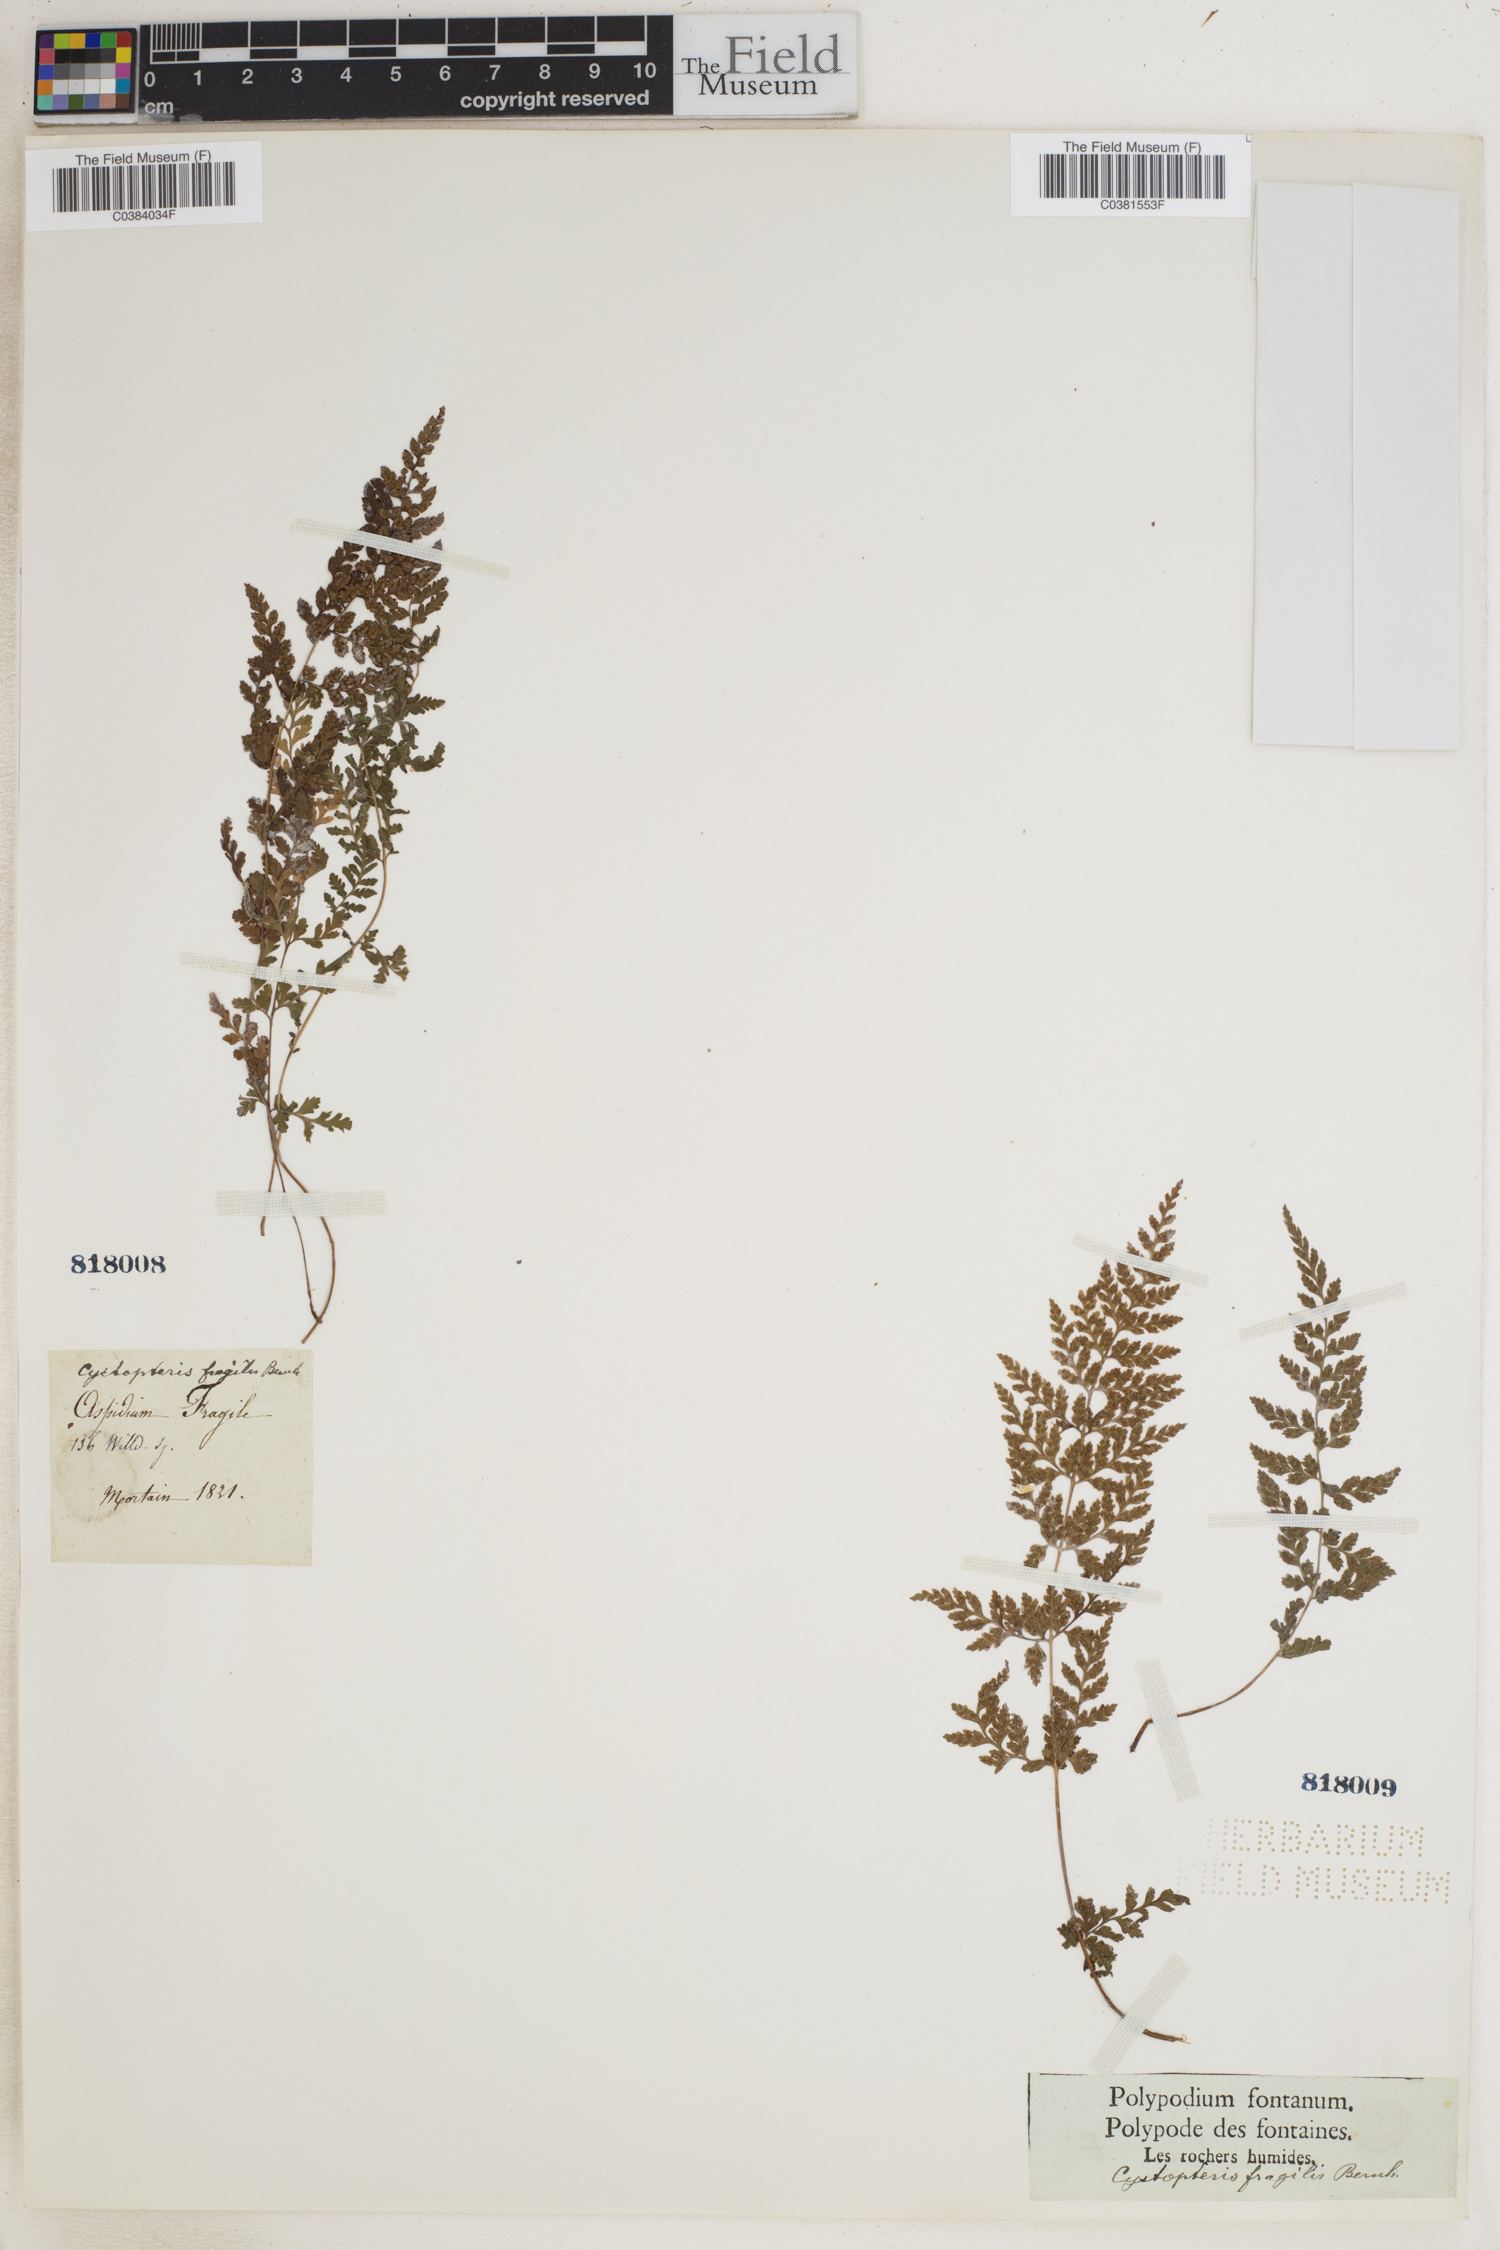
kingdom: Plantae
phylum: Tracheophyta
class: Polypodiopsida
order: Polypodiales
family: Cystopteridaceae
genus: Cystopteris
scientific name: Cystopteris fragilis
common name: Brittle bladder fern
